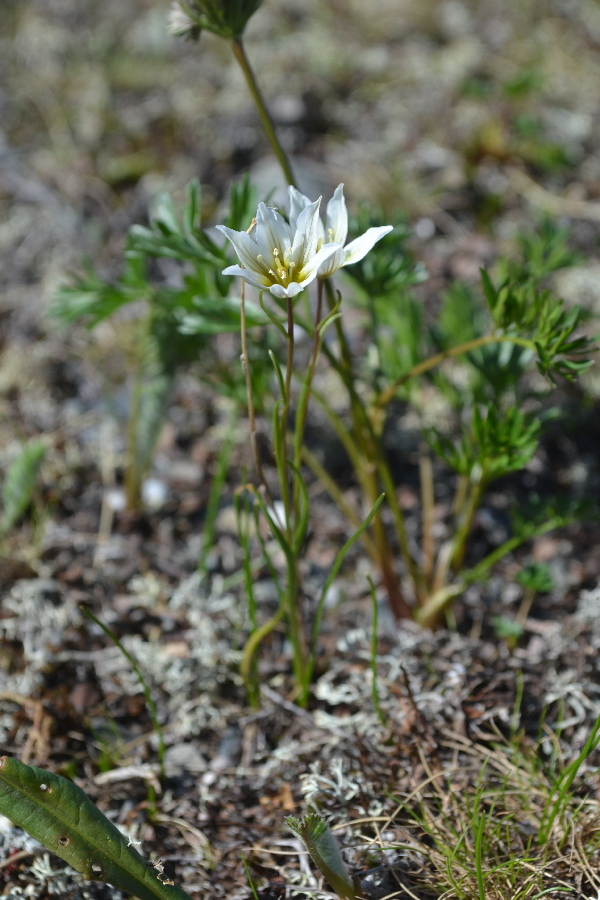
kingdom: Plantae
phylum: Tracheophyta
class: Liliopsida
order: Liliales
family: Liliaceae
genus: Gagea
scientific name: Gagea serotina
